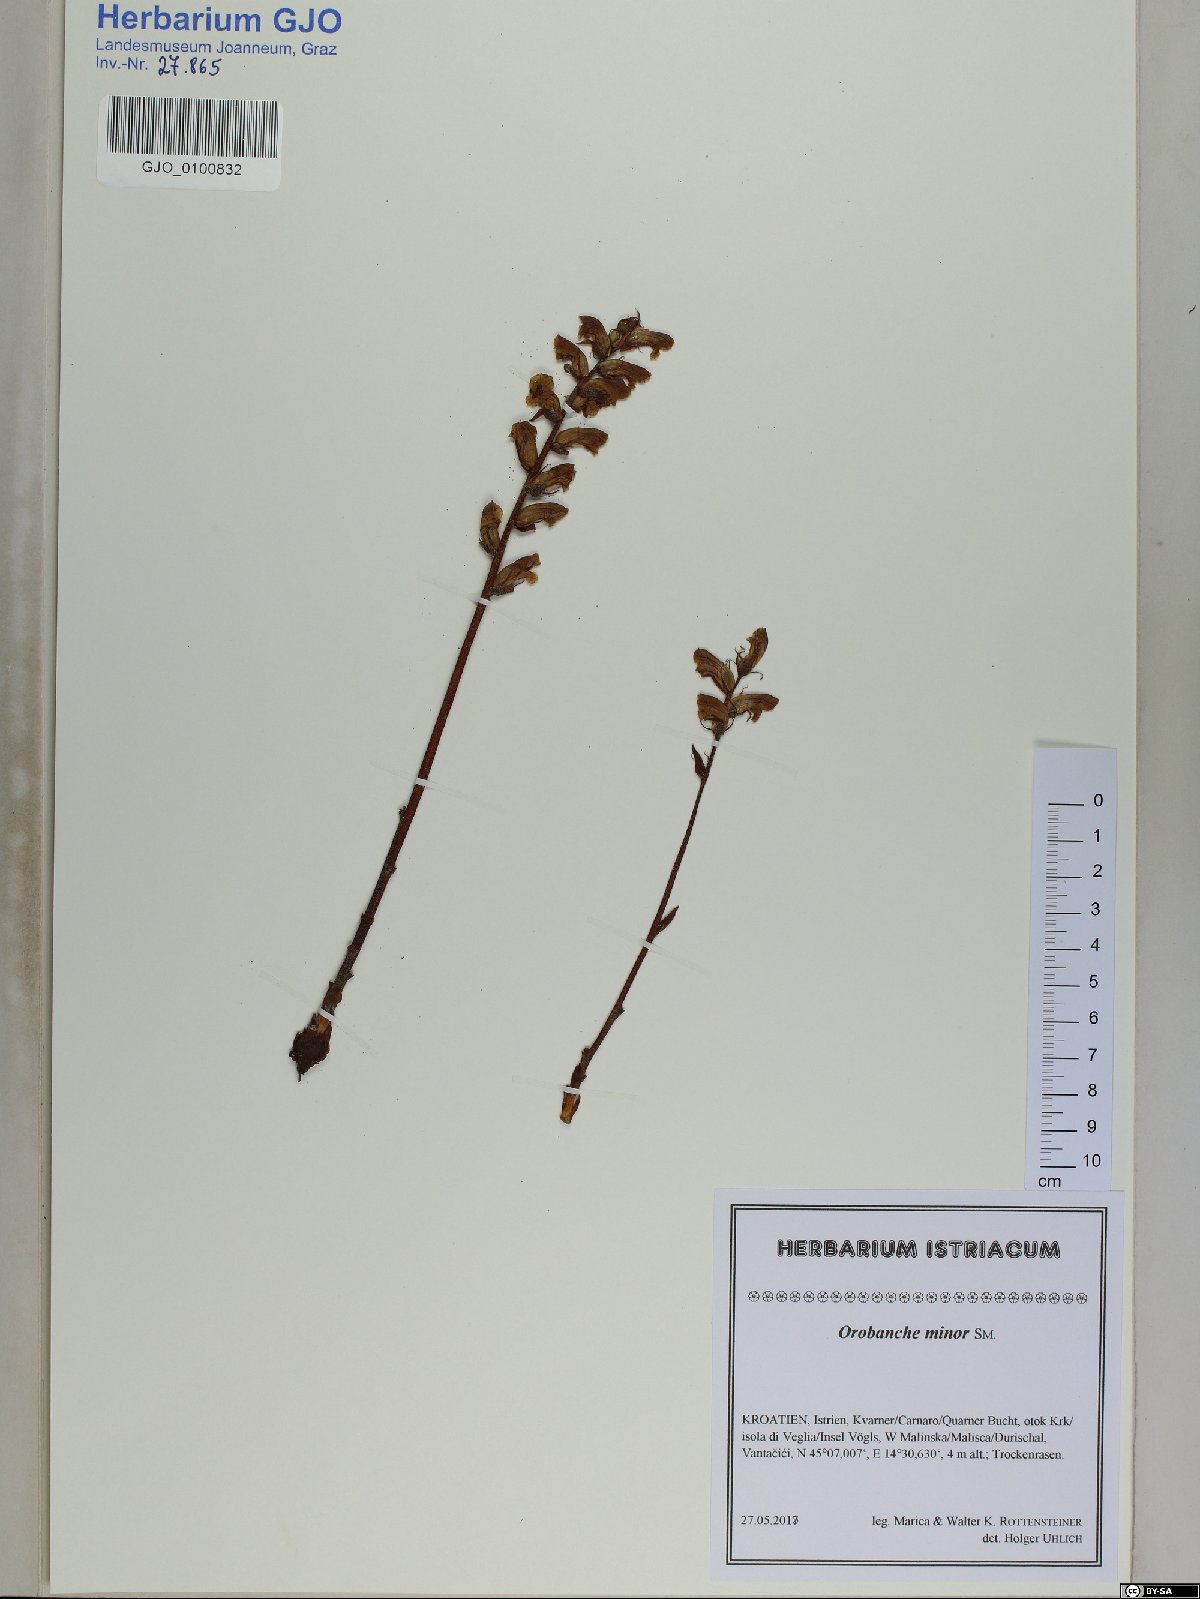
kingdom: Plantae
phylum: Tracheophyta
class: Magnoliopsida
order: Lamiales
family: Orobanchaceae
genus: Orobanche
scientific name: Orobanche minor
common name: Common broomrape
